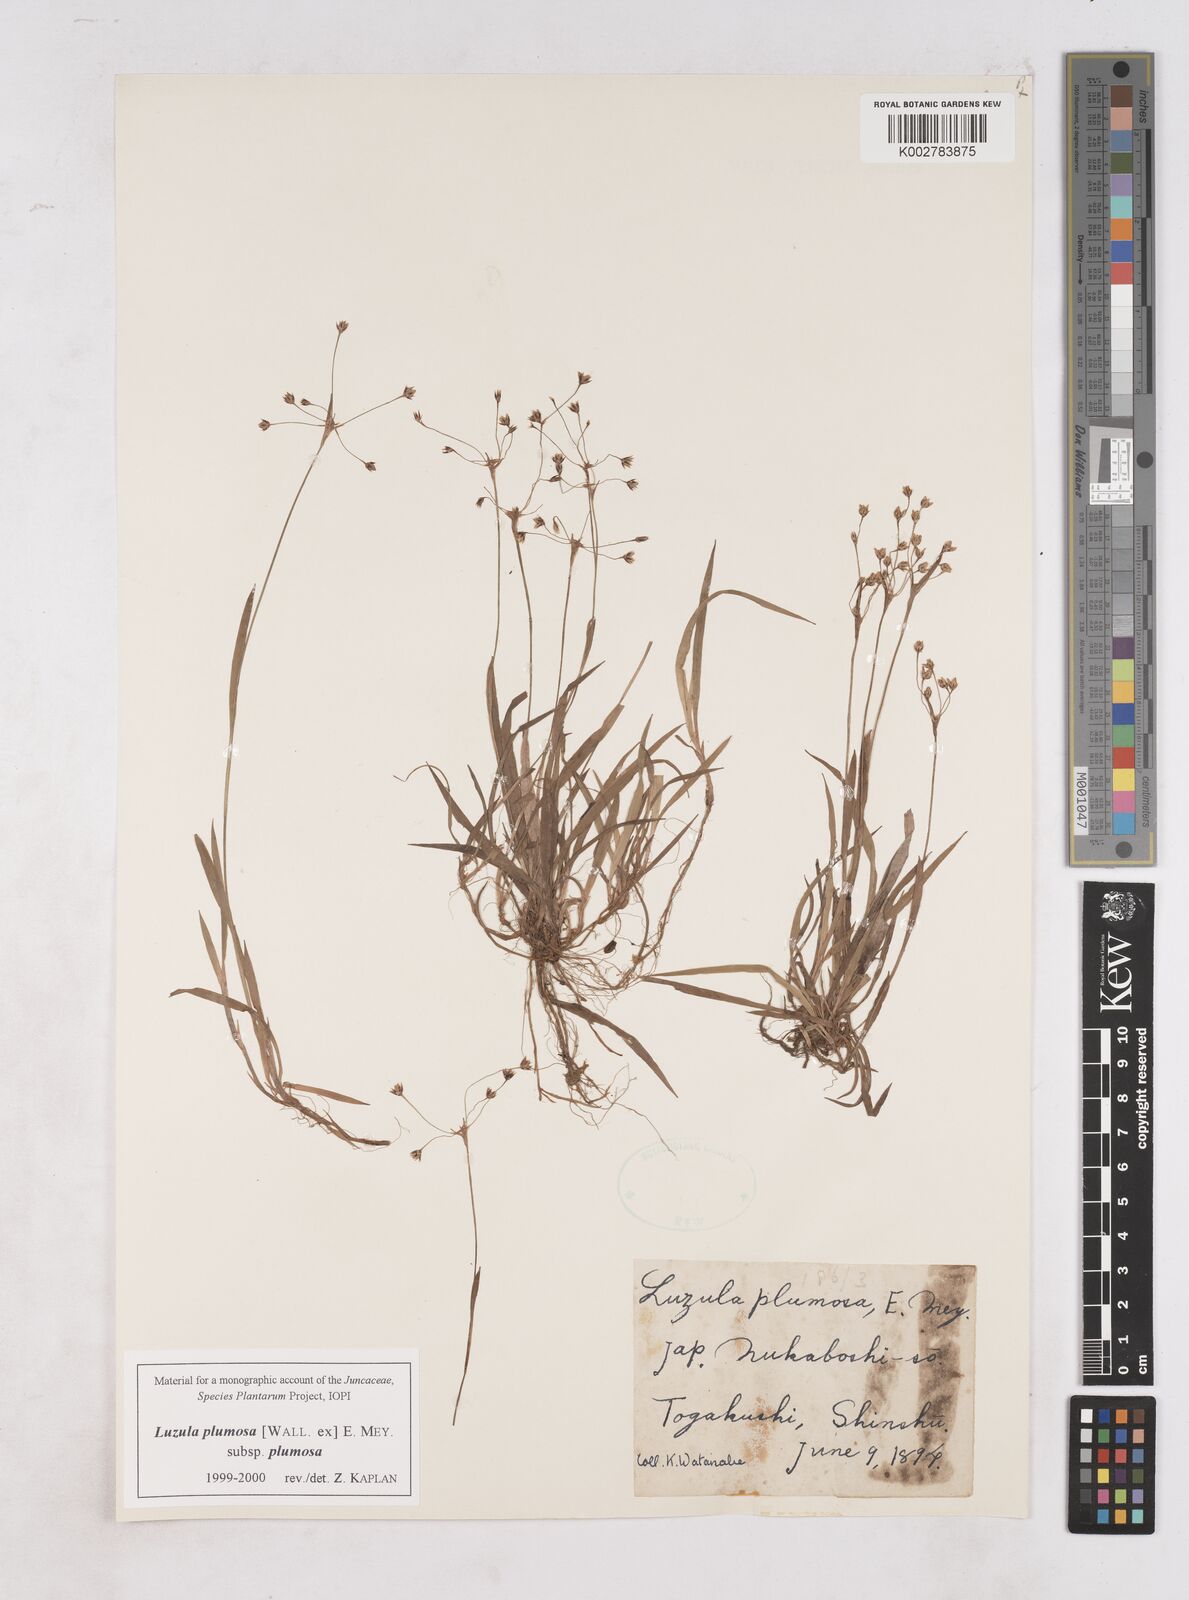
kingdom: Plantae
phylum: Tracheophyta
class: Liliopsida
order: Poales
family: Juncaceae
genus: Luzula
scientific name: Luzula plumosa
